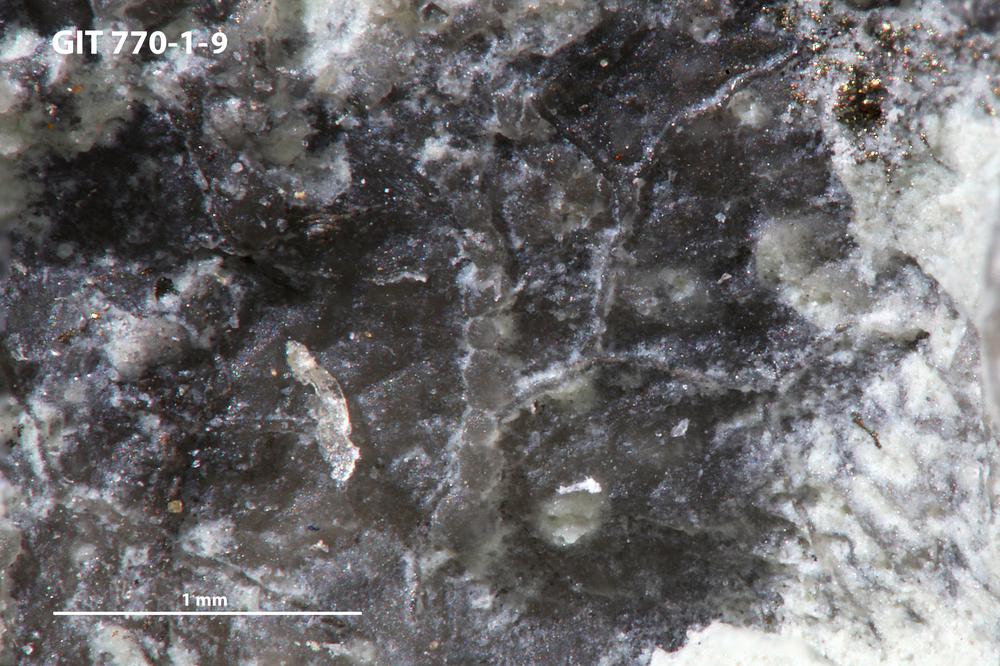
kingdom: Animalia
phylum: Bryozoa
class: Stenolaemata
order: Cyclostomatida
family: Corynotrypidae
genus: Corynotrypa
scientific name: Corynotrypa
